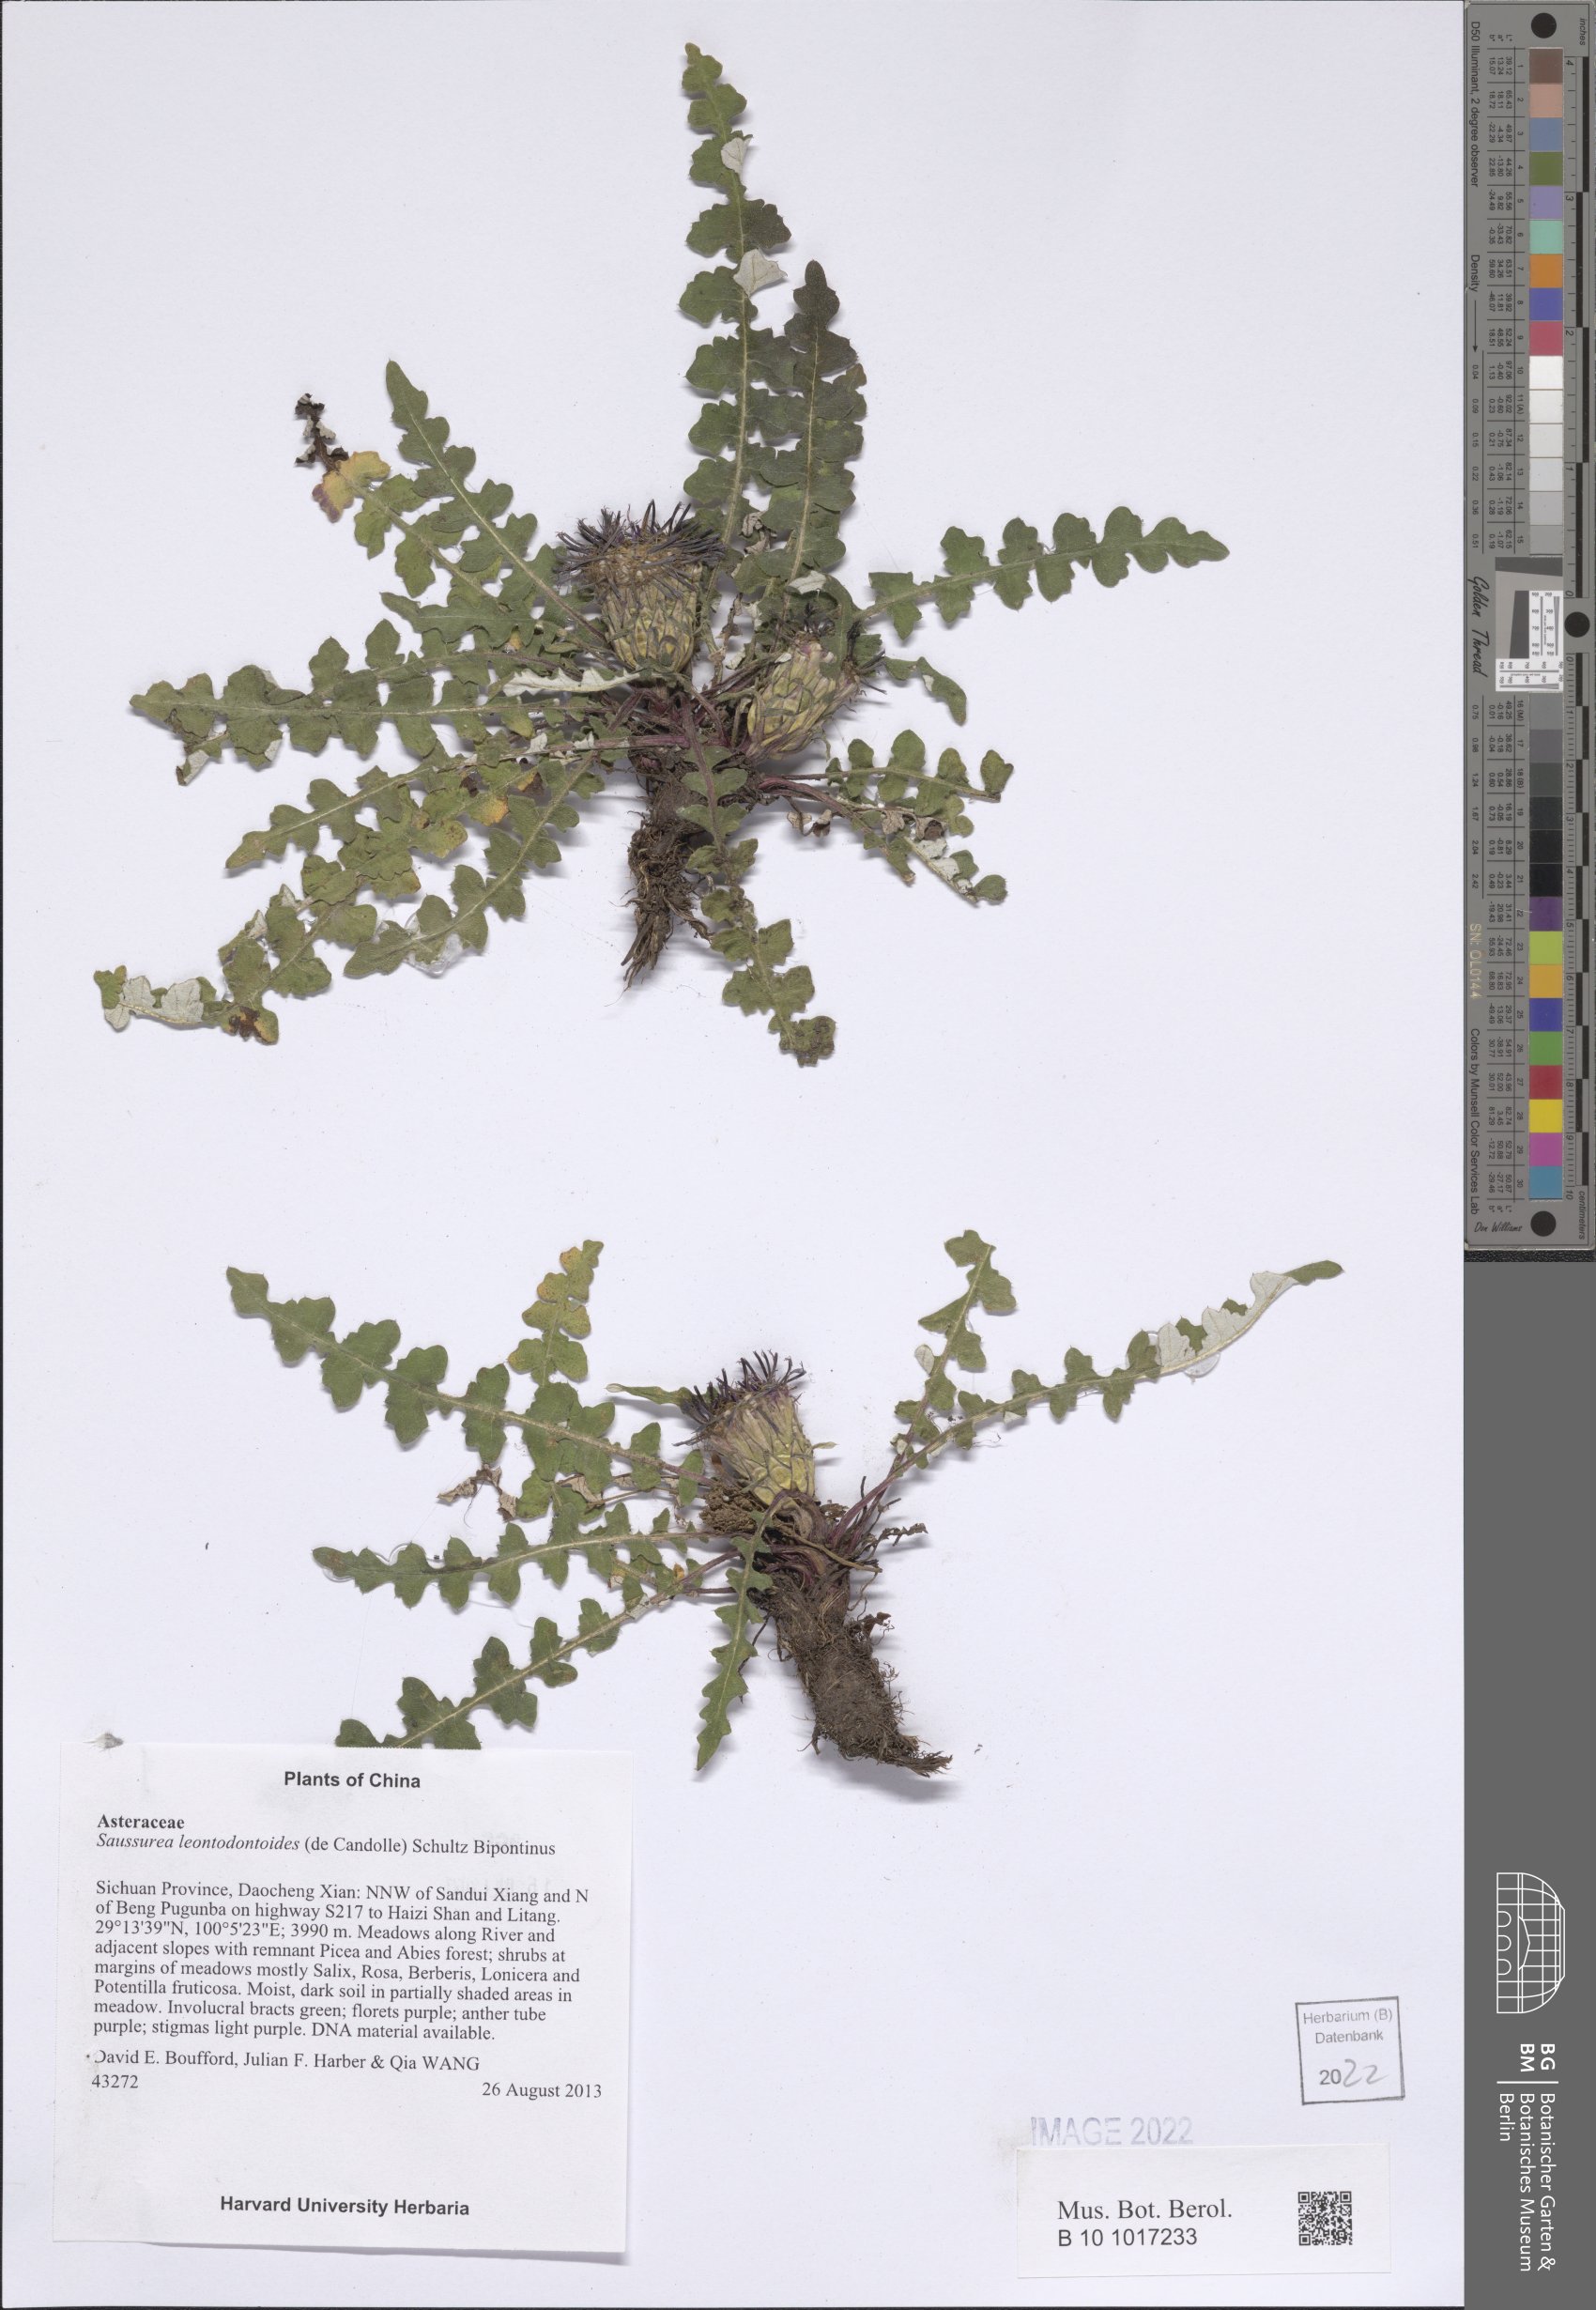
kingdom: Plantae
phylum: Tracheophyta
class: Magnoliopsida
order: Asterales
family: Asteraceae
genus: Saussurea
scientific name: Saussurea leontodontoides
